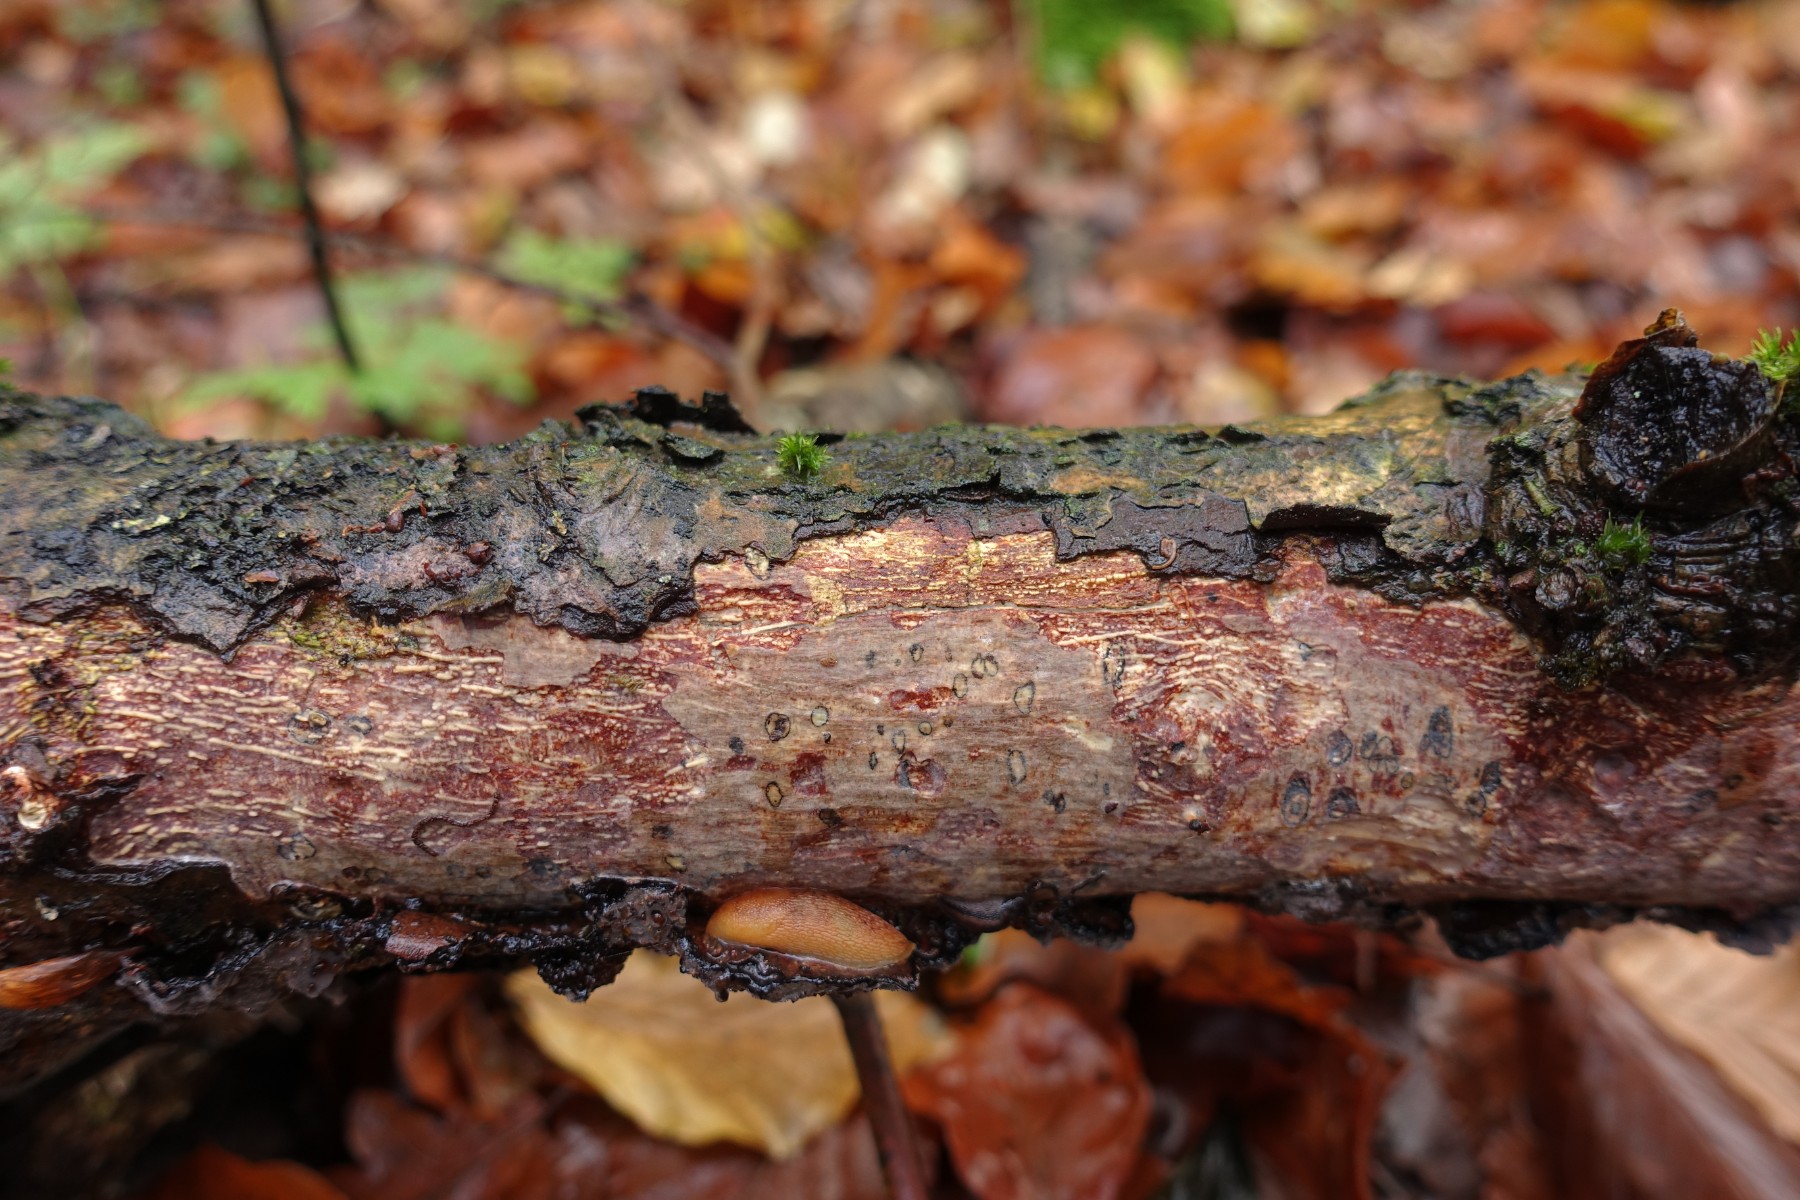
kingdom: Fungi
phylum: Basidiomycota
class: Agaricomycetes
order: Corticiales
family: Vuilleminiaceae
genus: Vuilleminia
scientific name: Vuilleminia comedens
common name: almindelig barksprænger
